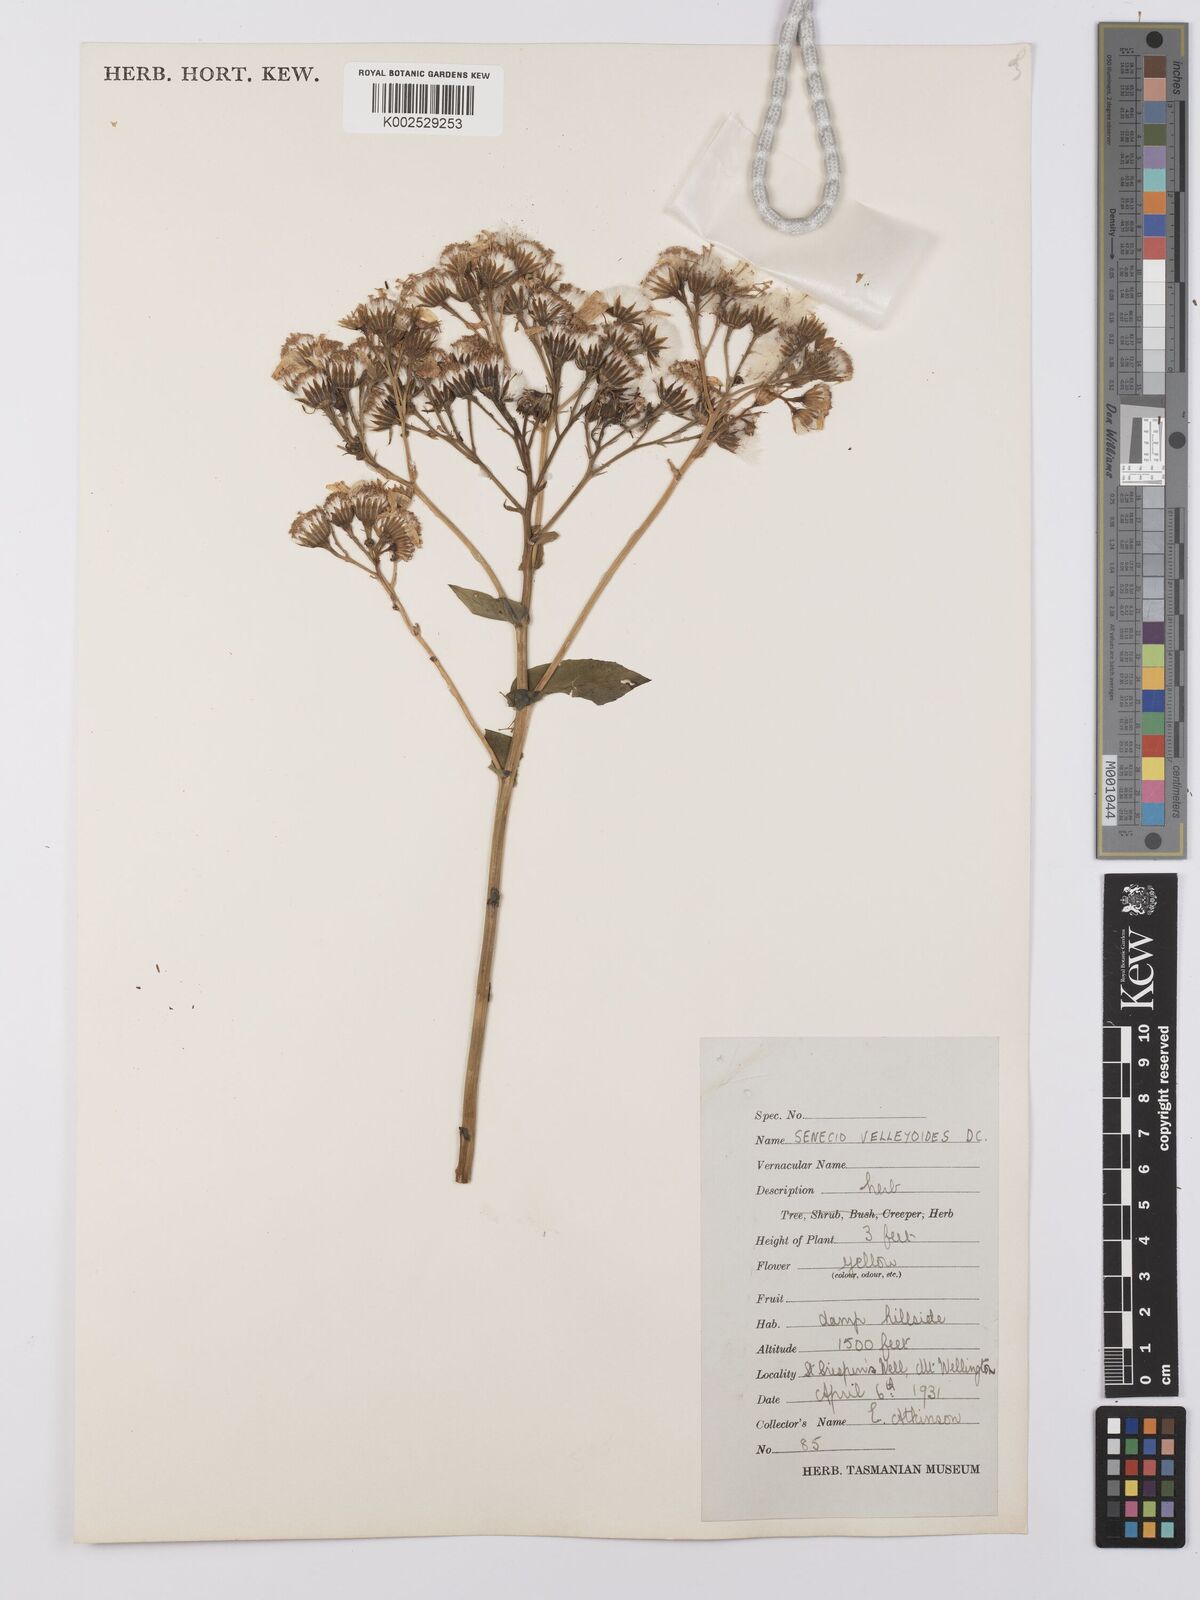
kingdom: Plantae
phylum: Tracheophyta
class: Magnoliopsida
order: Asterales
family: Asteraceae
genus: Lordhowea
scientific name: Lordhowea velleioides
